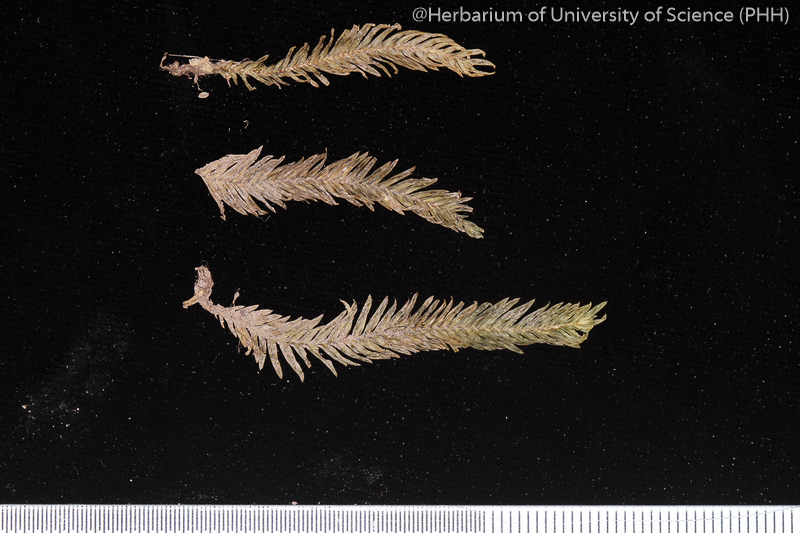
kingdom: Plantae
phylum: Bryophyta
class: Bryopsida
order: Dicranales
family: Fissidentaceae
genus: Fissidens
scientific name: Fissidens nobilis
